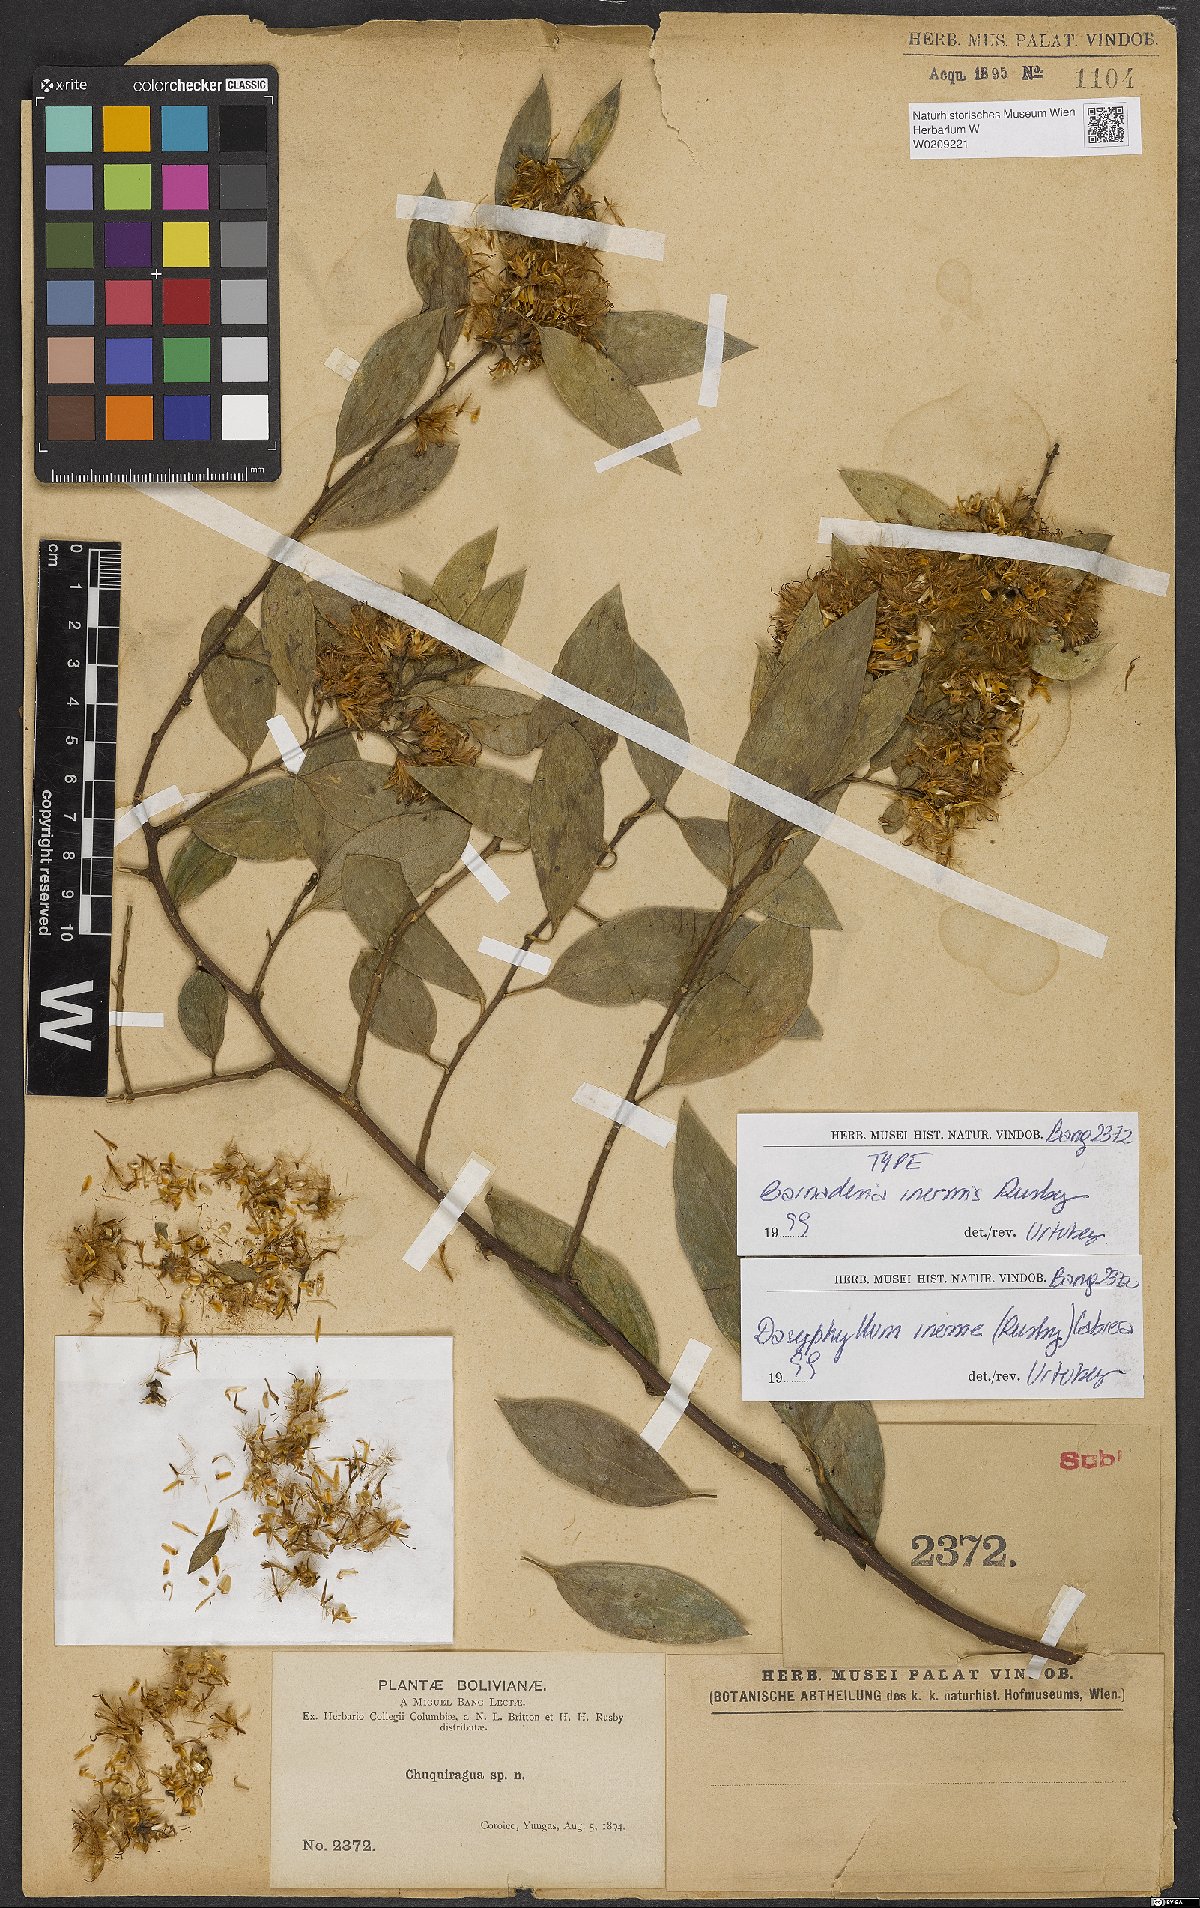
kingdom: Plantae
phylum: Tracheophyta
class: Magnoliopsida
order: Asterales
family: Asteraceae
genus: Dasyphyllum
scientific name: Dasyphyllum inerme
